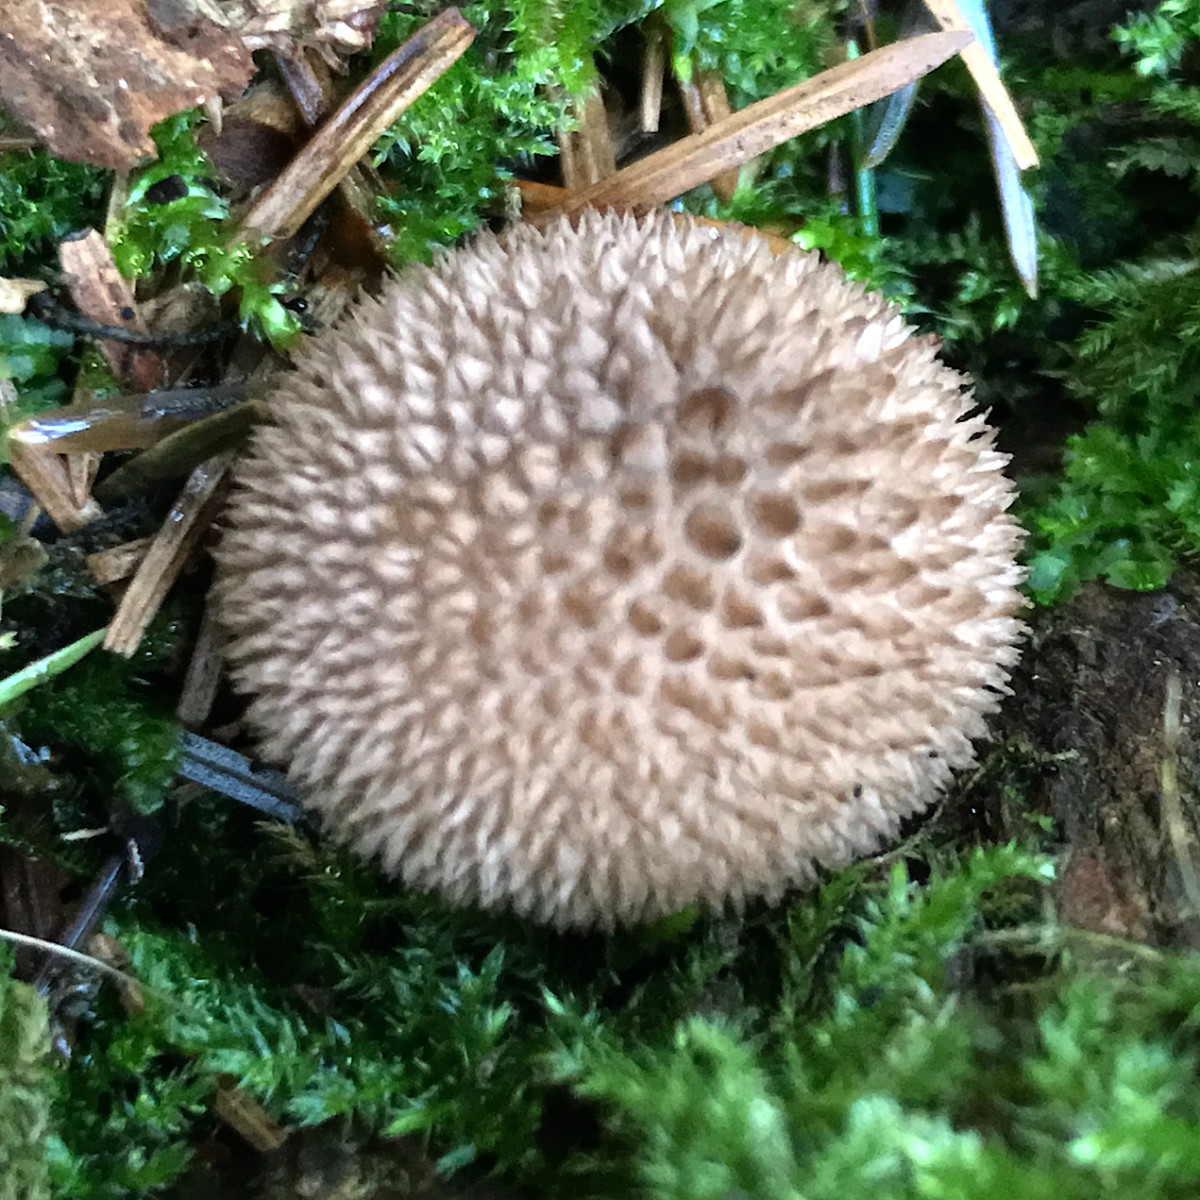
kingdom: Fungi
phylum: Basidiomycota
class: Agaricomycetes
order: Agaricales
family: Lycoperdaceae
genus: Lycoperdon
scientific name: Lycoperdon nigrescens
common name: sortagtig støvbold
